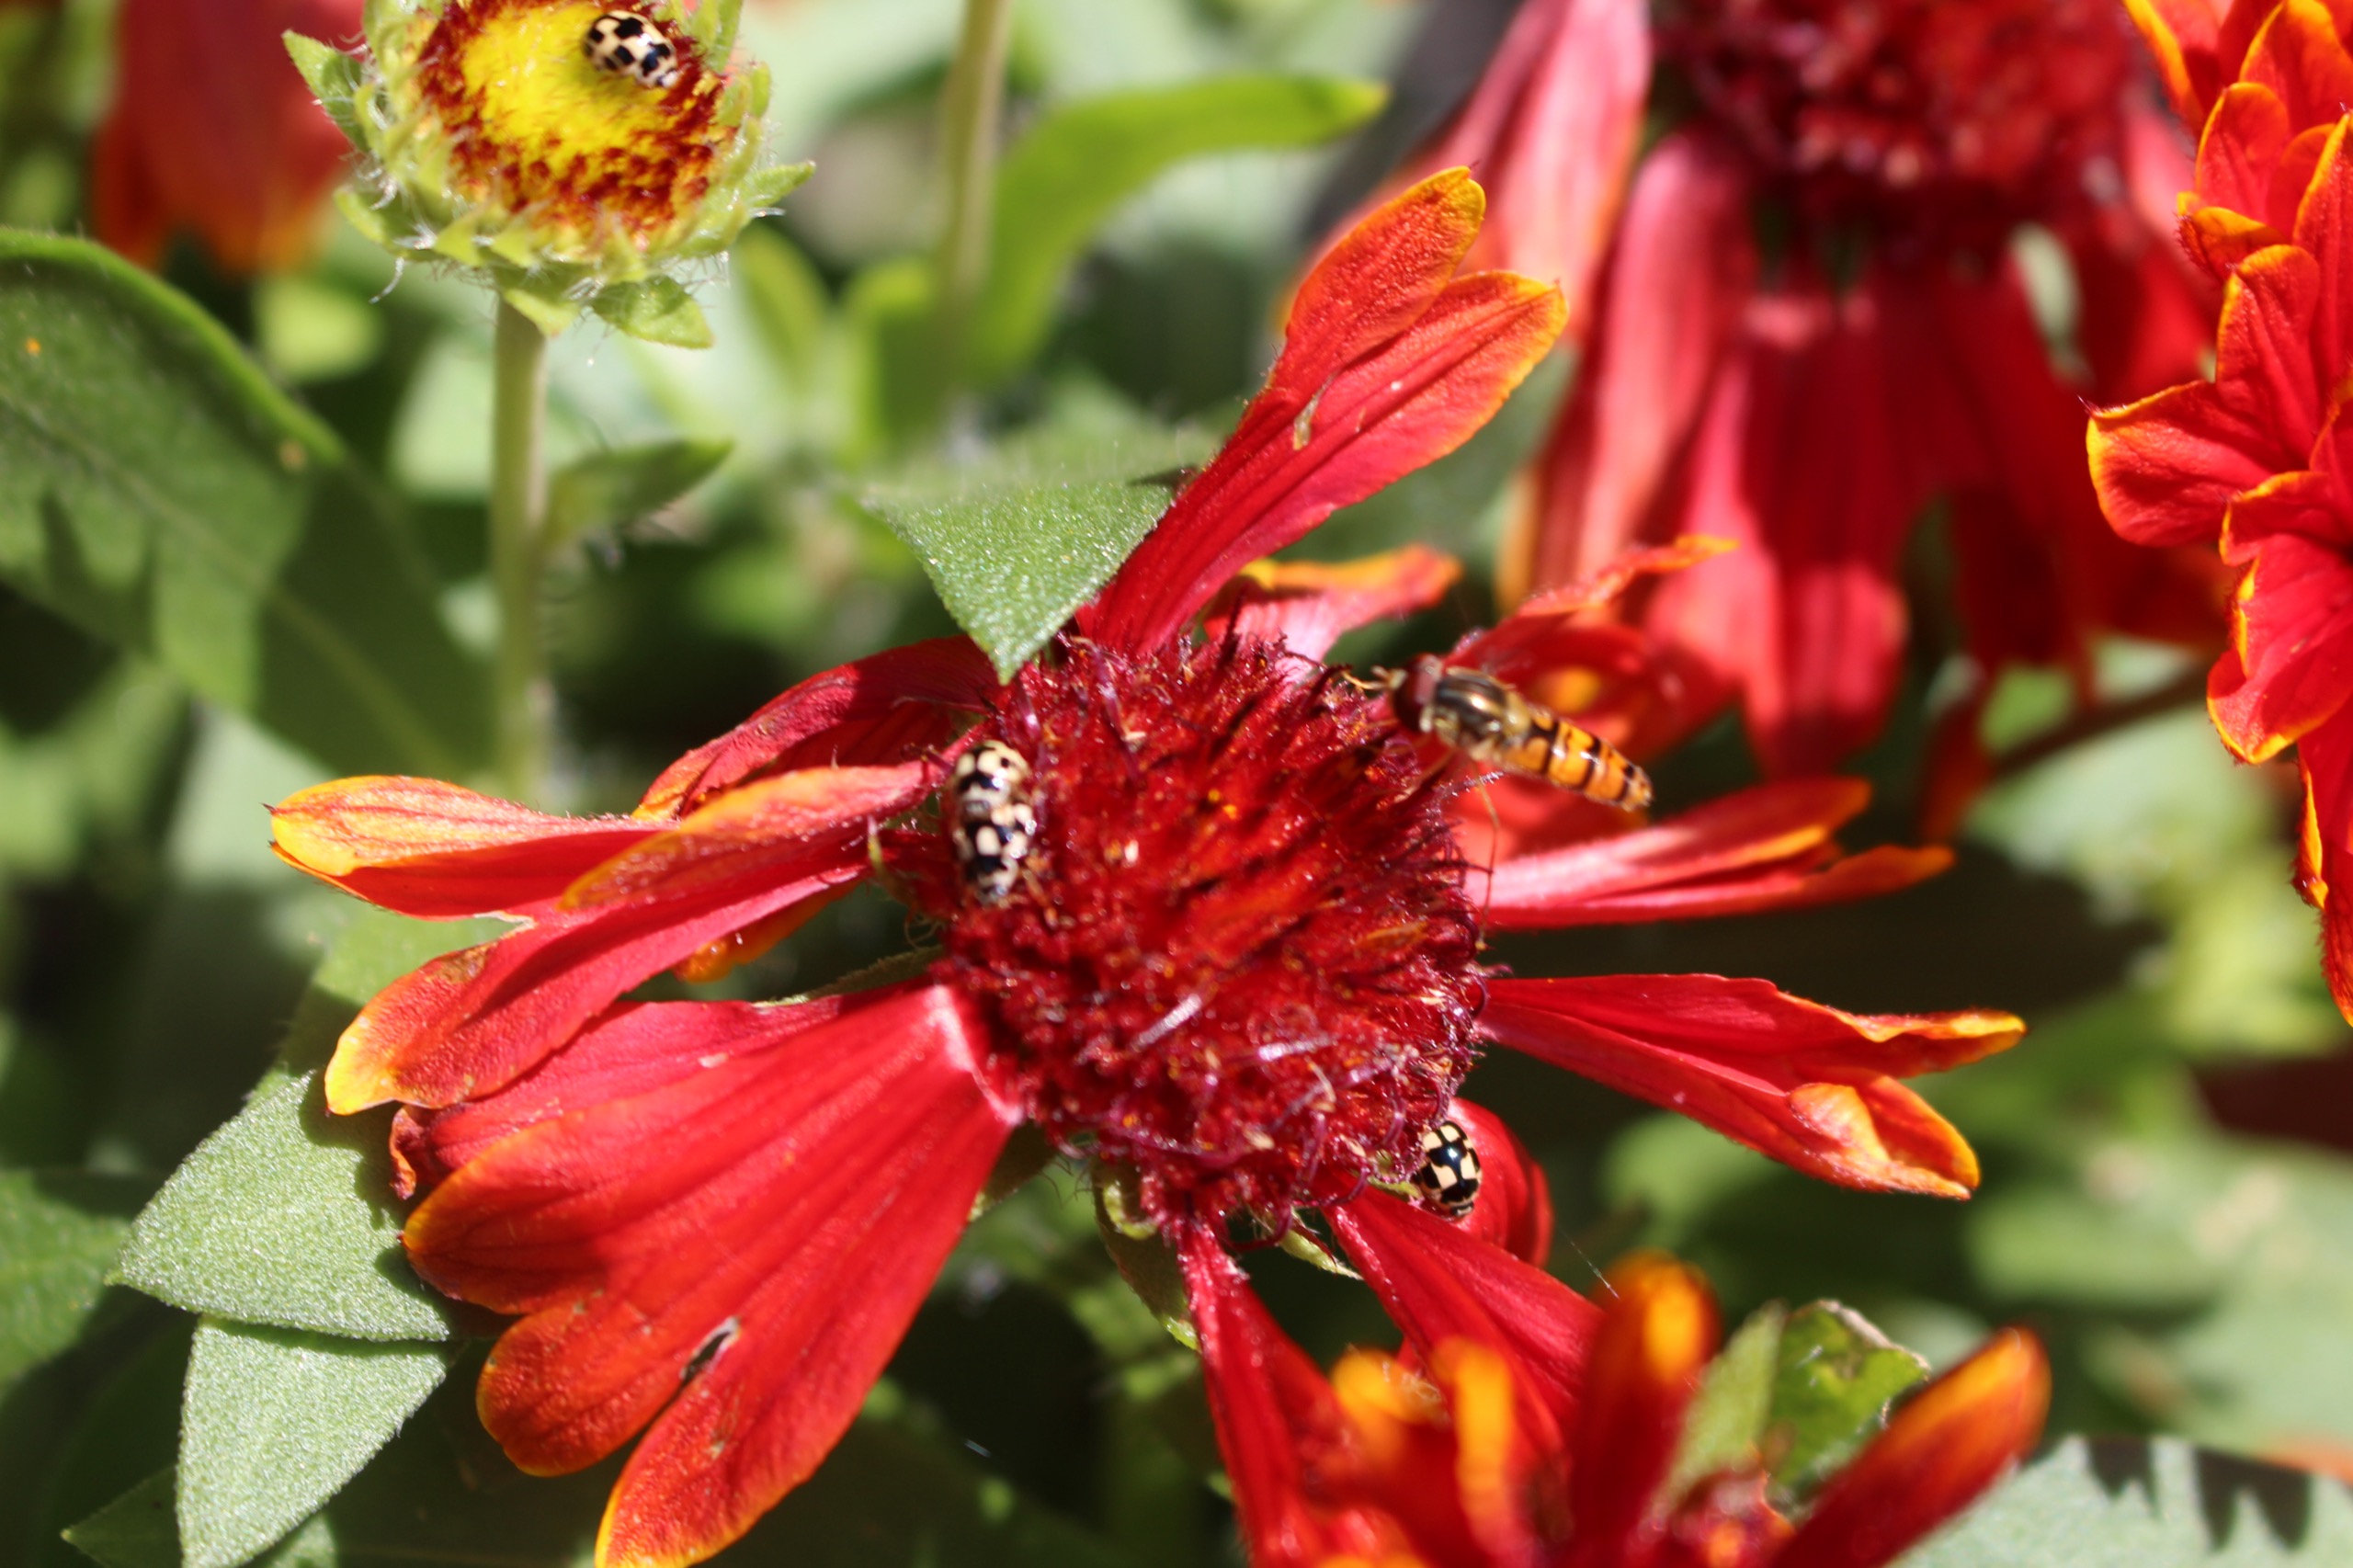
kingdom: Animalia
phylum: Arthropoda
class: Insecta
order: Coleoptera
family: Coccinellidae
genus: Propylaea
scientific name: Propylaea quatuordecimpunctata
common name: Skakbræt
